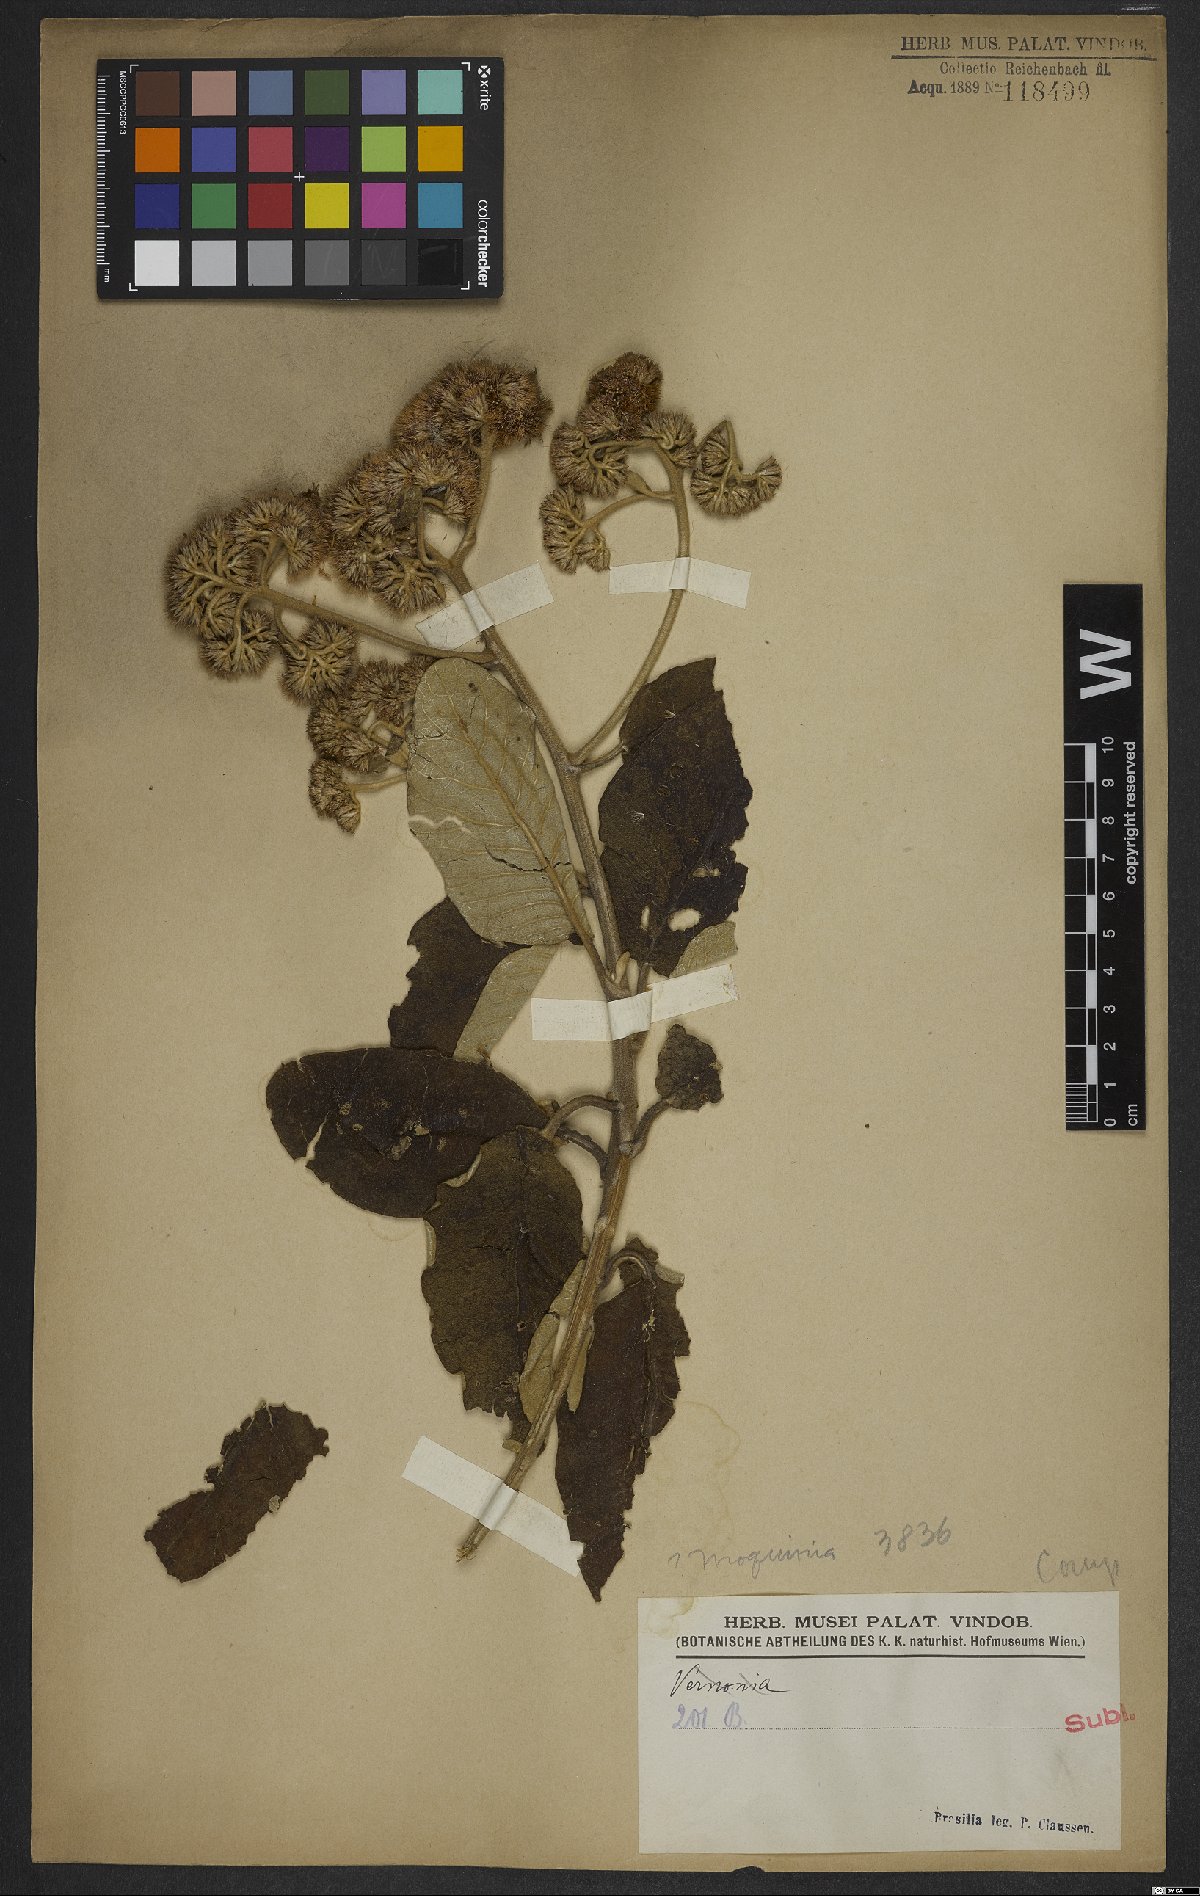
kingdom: Plantae
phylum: Tracheophyta
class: Magnoliopsida
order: Asterales
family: Asteraceae
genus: Moquinia
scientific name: Moquinia
